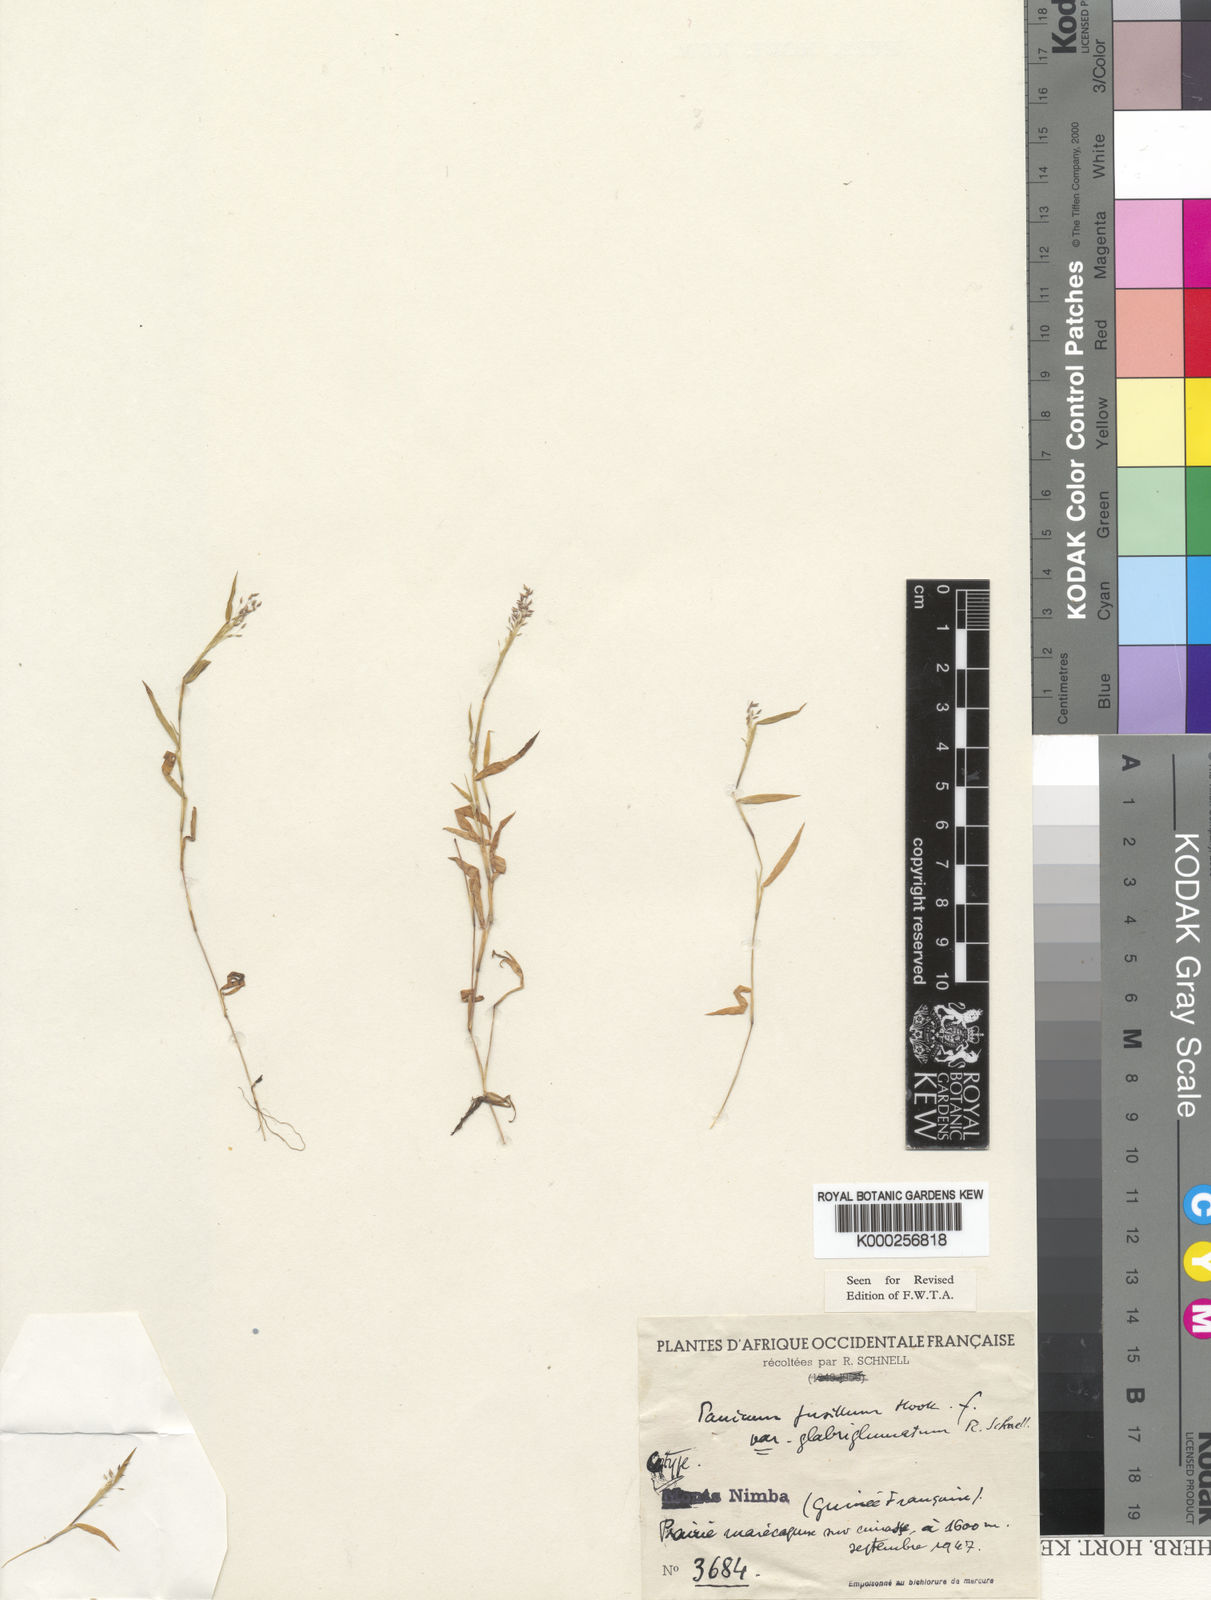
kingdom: Plantae
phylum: Tracheophyta
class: Liliopsida
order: Poales
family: Poaceae
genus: Trichanthecium
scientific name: Trichanthecium glaucocladum
